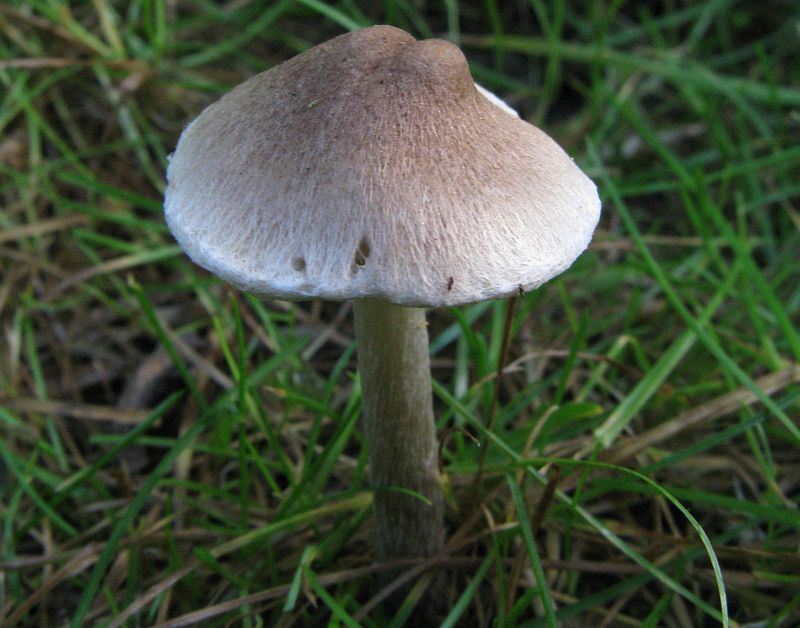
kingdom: Fungi
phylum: Basidiomycota
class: Agaricomycetes
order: Agaricales
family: Inocybaceae
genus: Inocybe
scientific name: Inocybe
